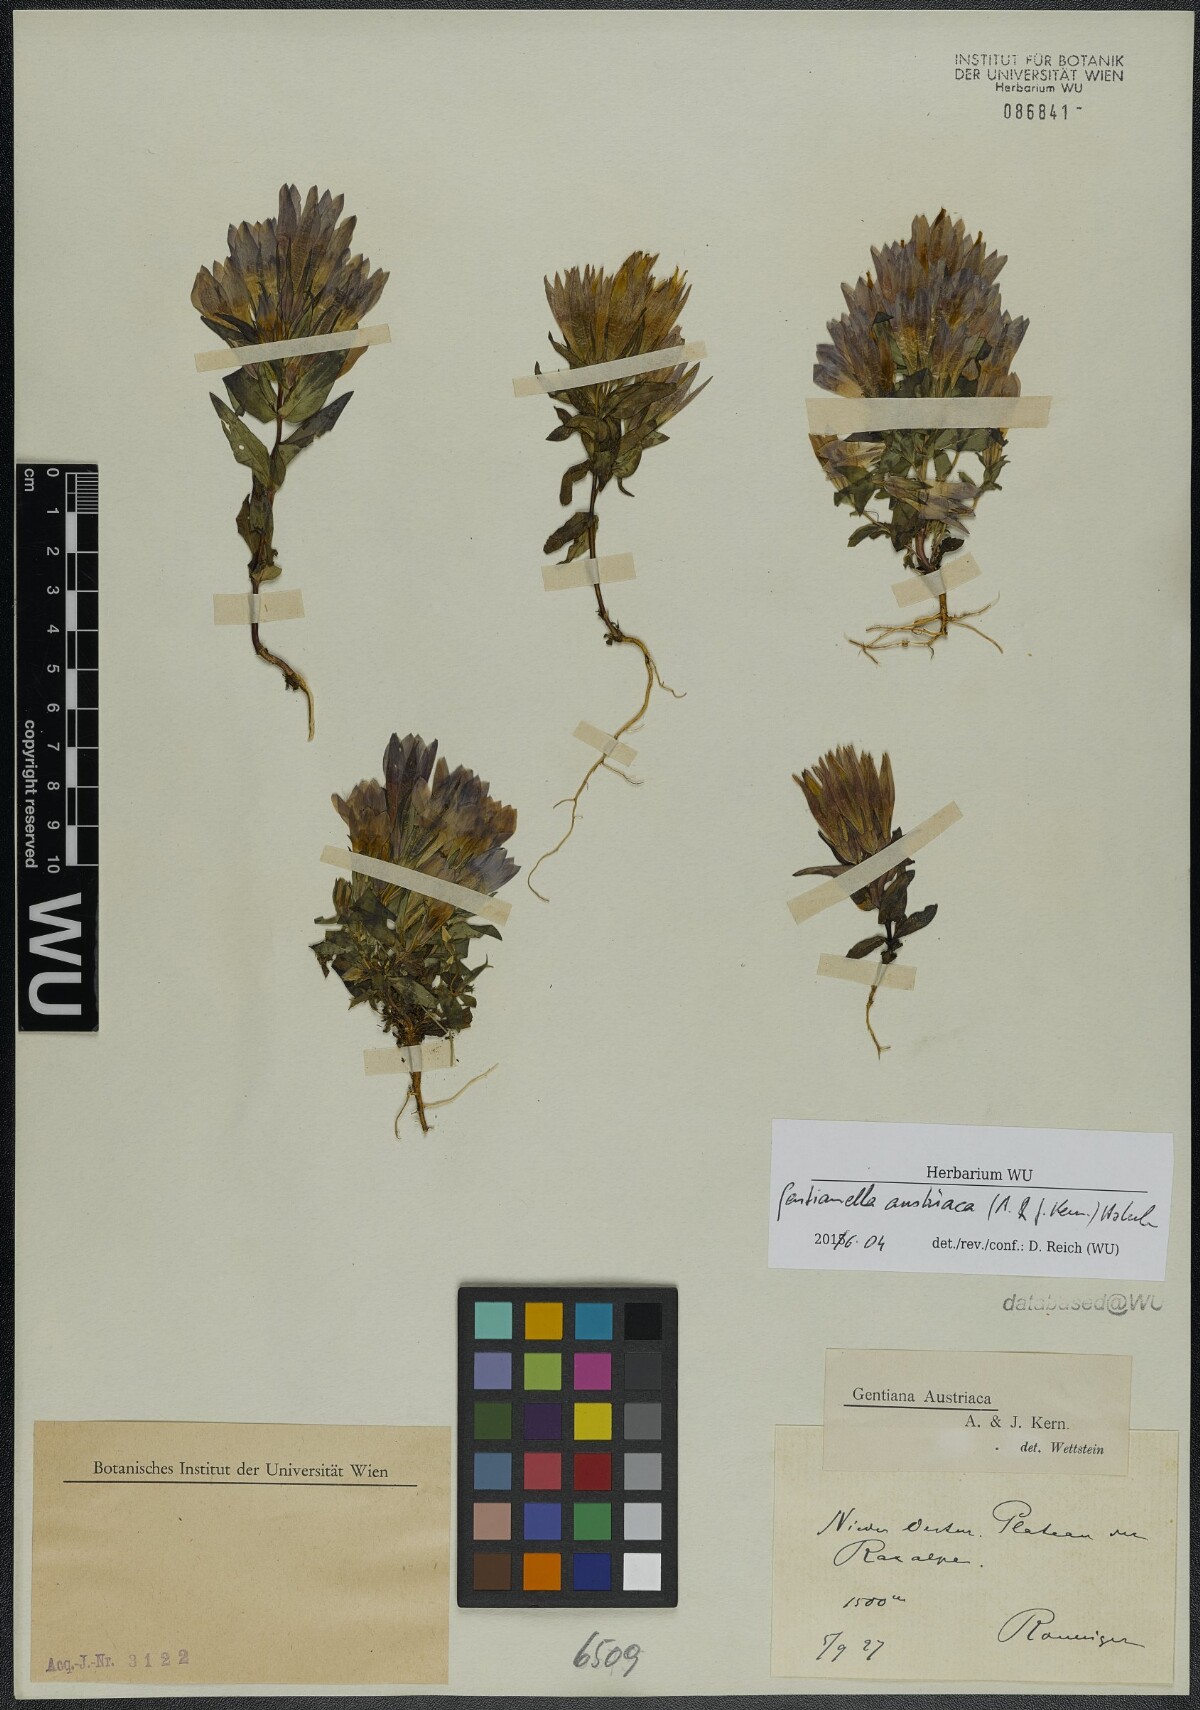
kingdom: Plantae
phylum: Tracheophyta
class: Magnoliopsida
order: Gentianales
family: Gentianaceae
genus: Gentianella
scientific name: Gentianella austriaca
